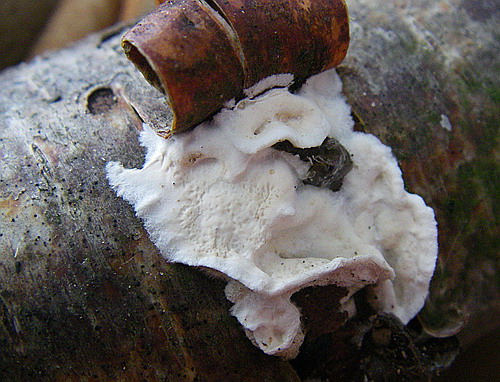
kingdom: Fungi
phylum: Basidiomycota
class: Agaricomycetes
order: Polyporales
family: Irpicaceae
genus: Byssomerulius
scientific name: Byssomerulius corium
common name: læder-åresvamp
